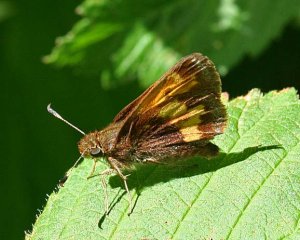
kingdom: Animalia
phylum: Arthropoda
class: Insecta
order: Lepidoptera
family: Hesperiidae
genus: Lon
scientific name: Lon hobomok
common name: Hobomok Skipper
